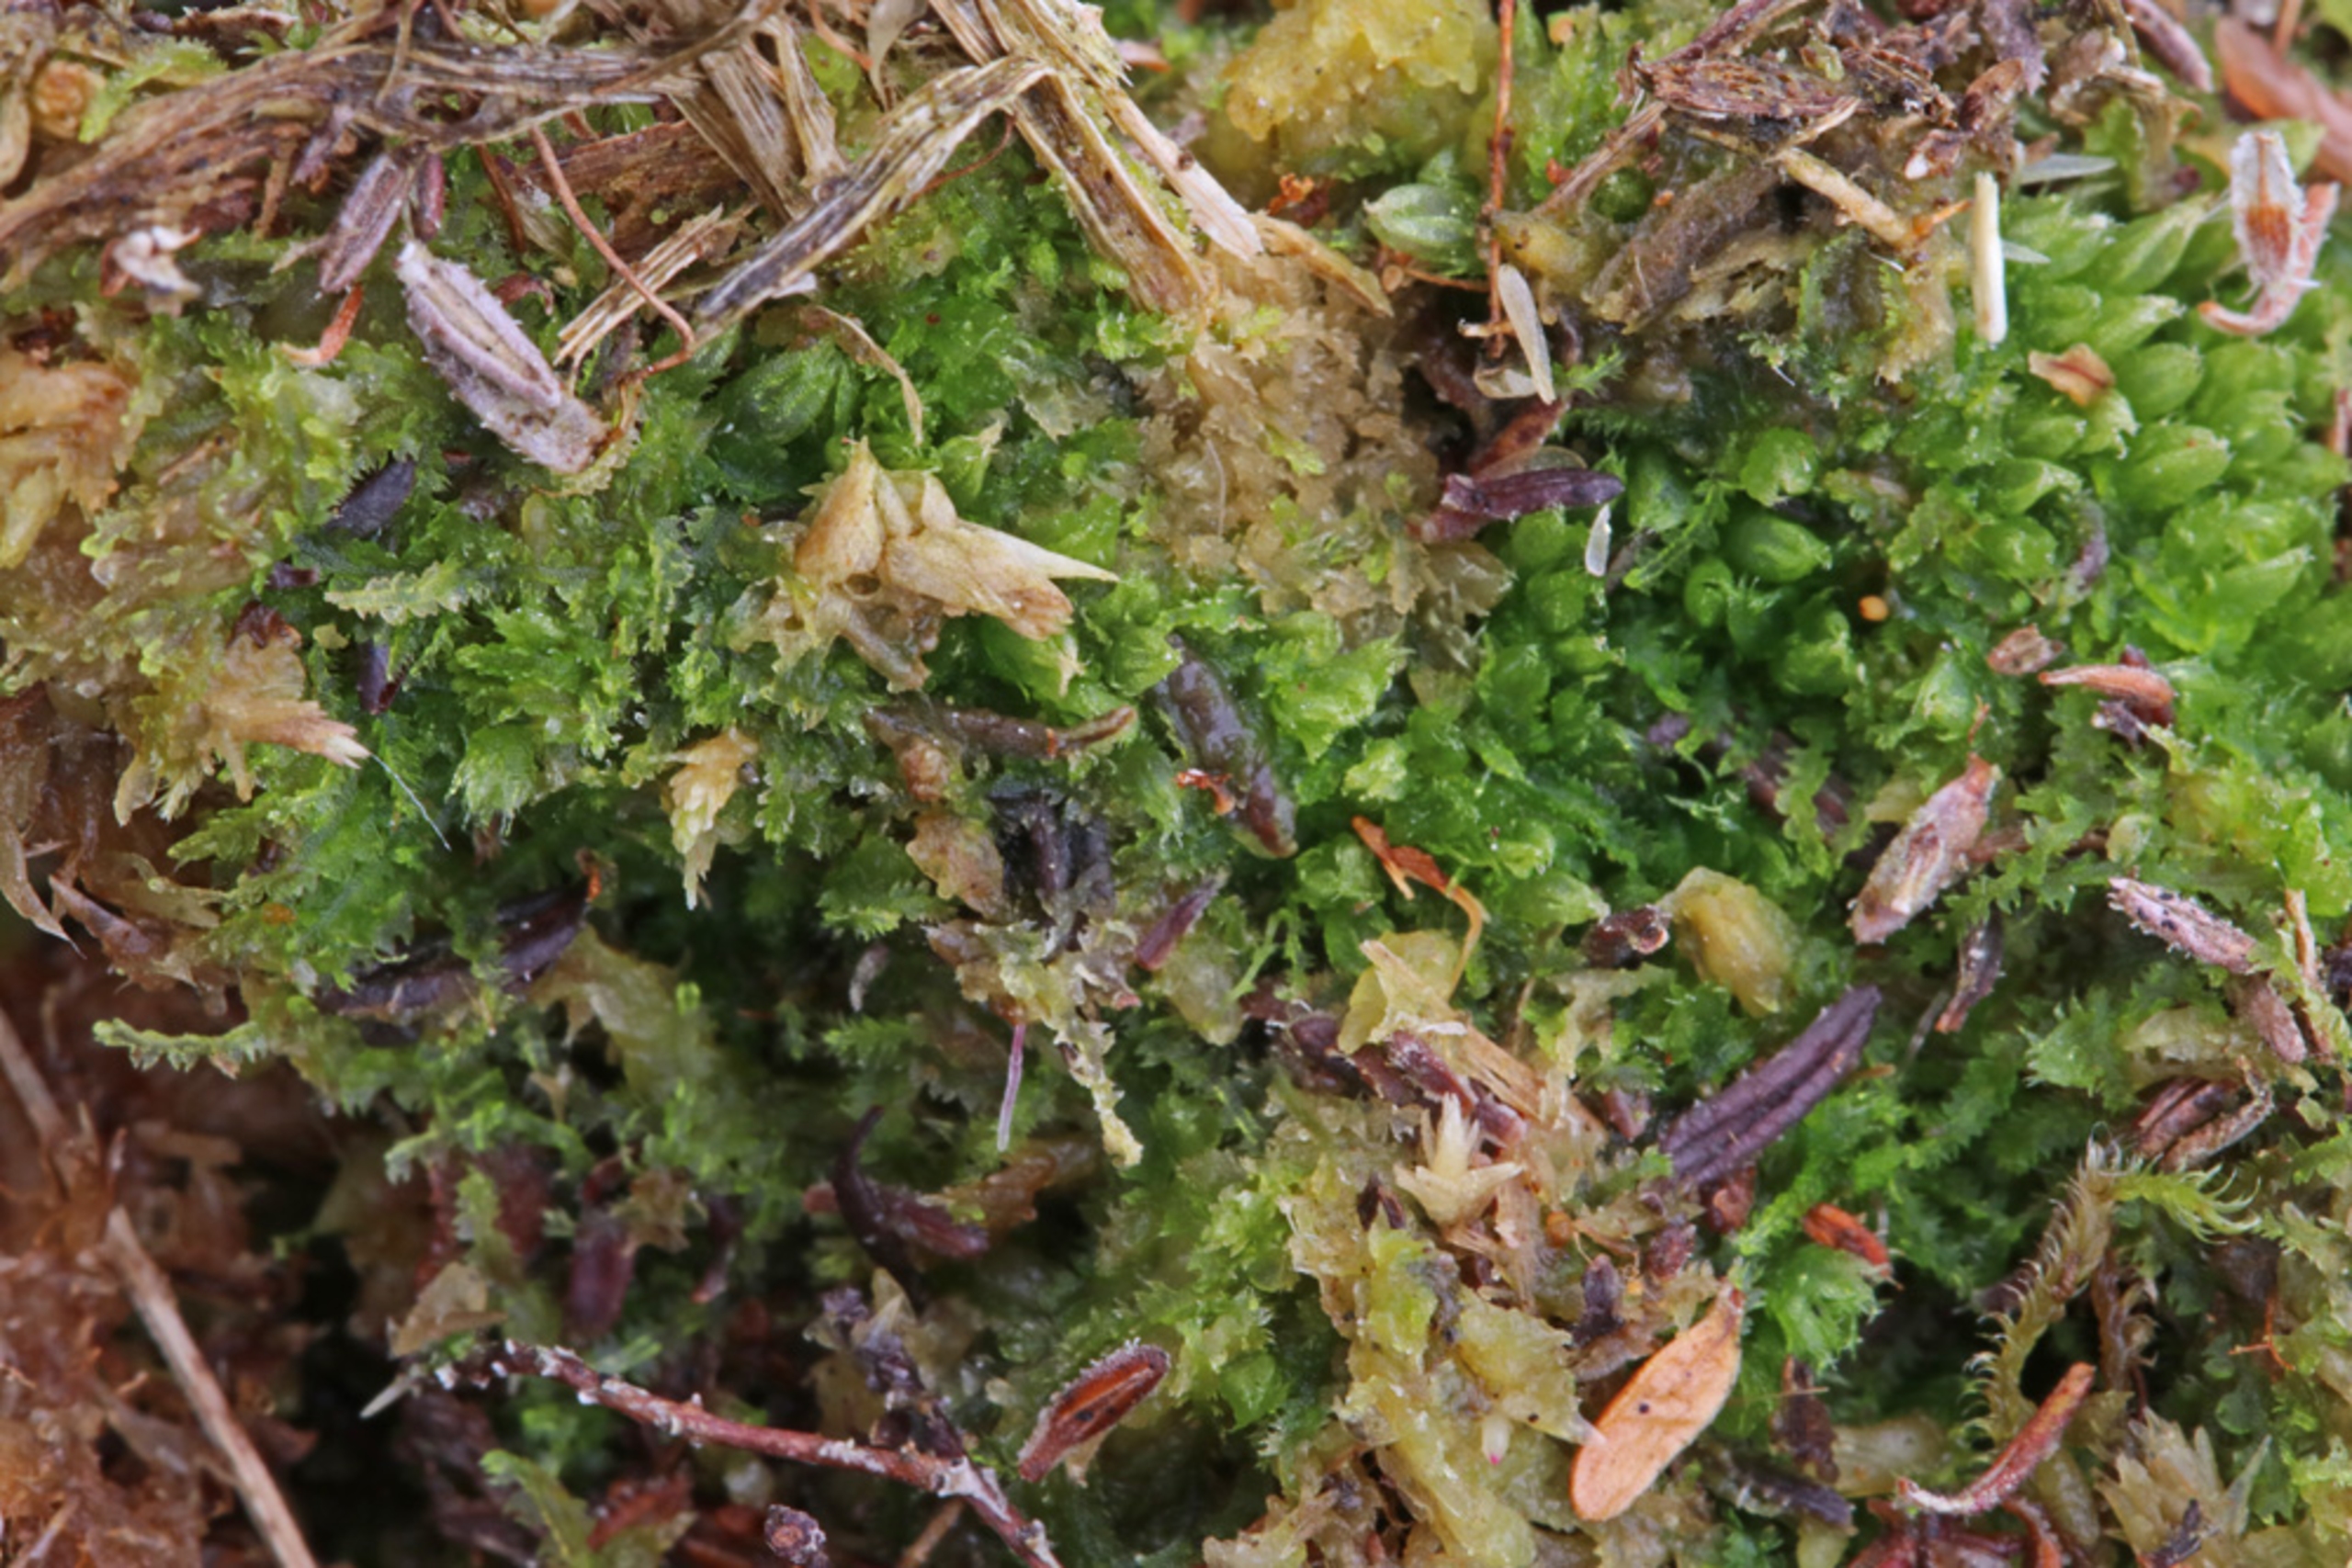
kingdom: Plantae
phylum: Marchantiophyta
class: Jungermanniopsida
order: Jungermanniales
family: Cephaloziaceae
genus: Fuscocephaloziopsis
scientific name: Fuscocephaloziopsis connivens
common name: Flad kantbæger
